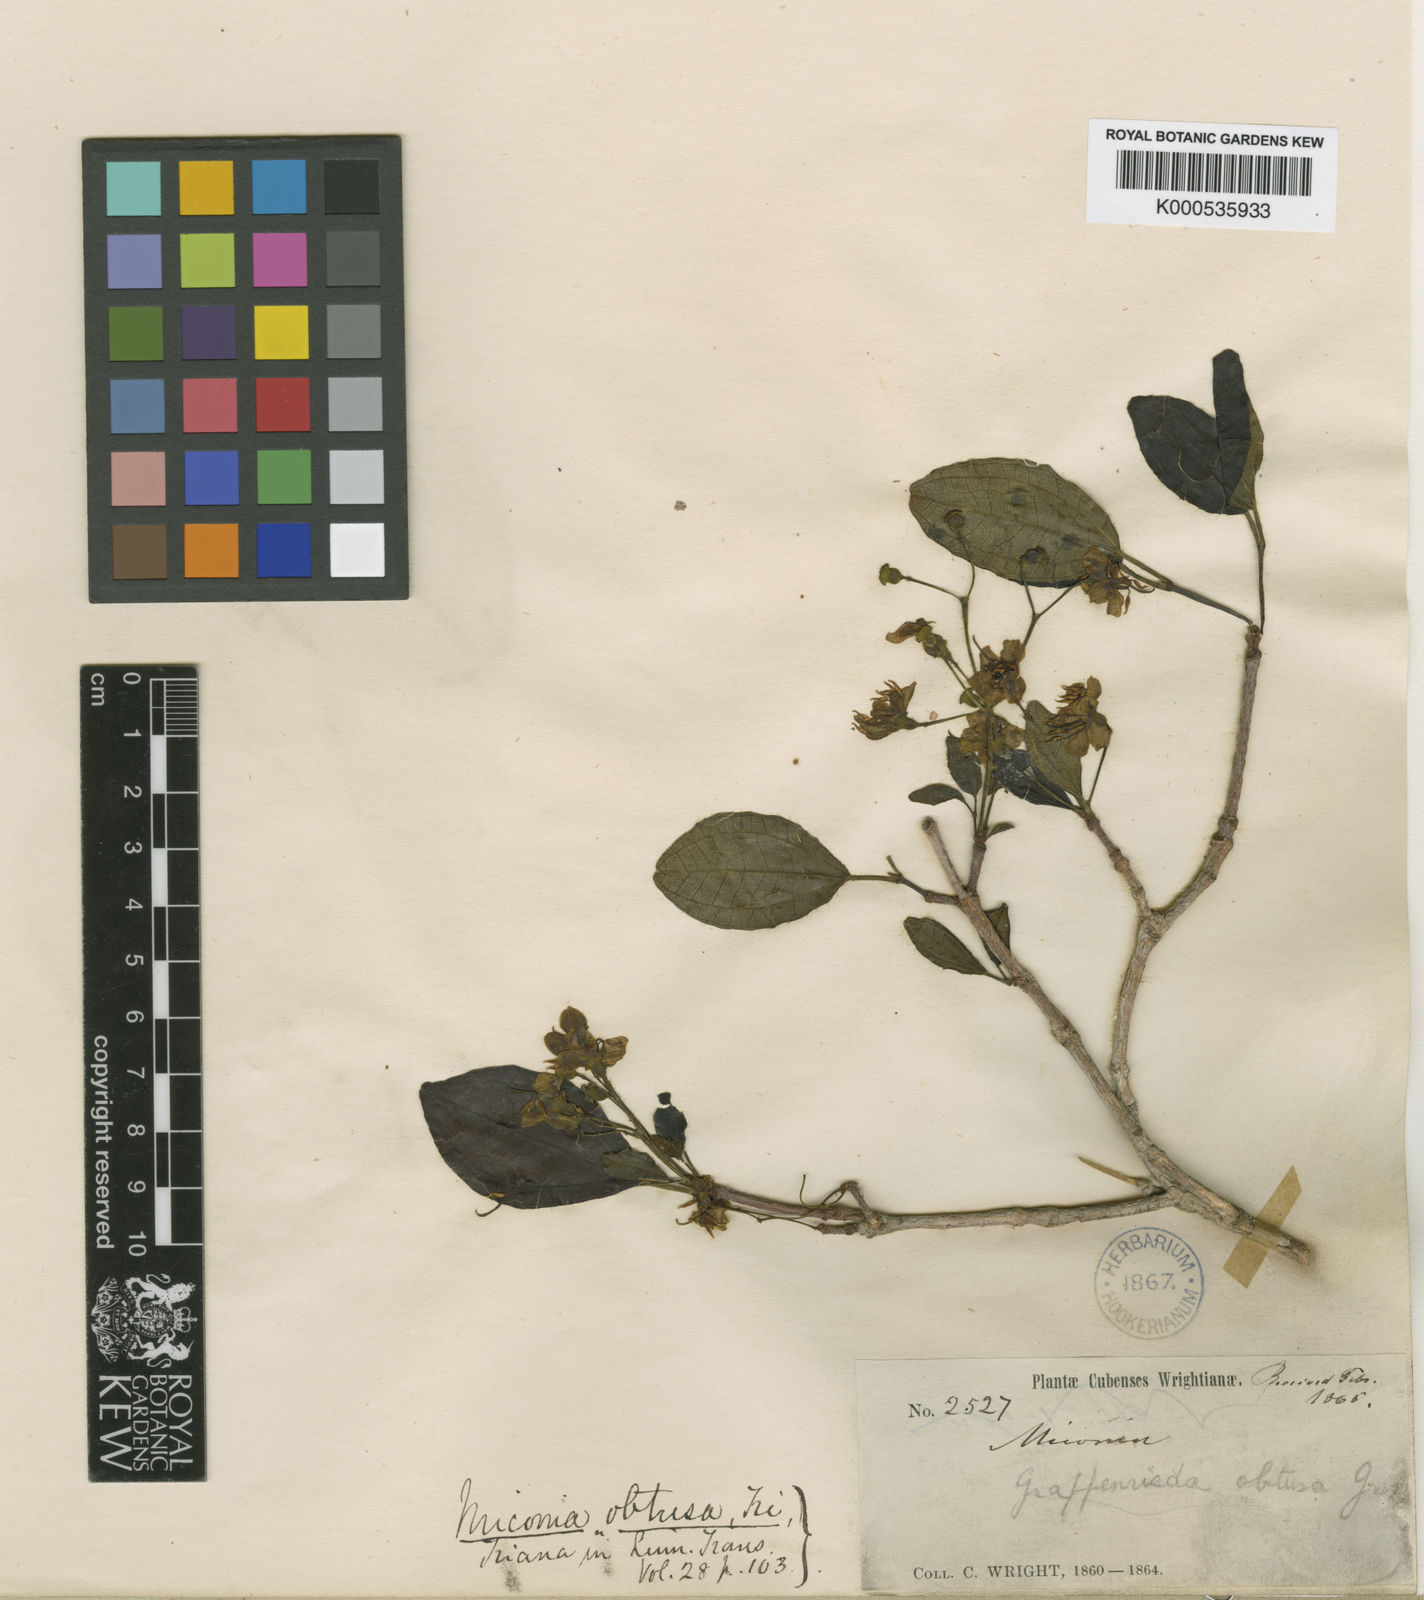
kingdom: Plantae
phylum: Tracheophyta
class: Magnoliopsida
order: Myrtales
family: Melastomataceae
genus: Miconia
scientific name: Miconia obtusa
